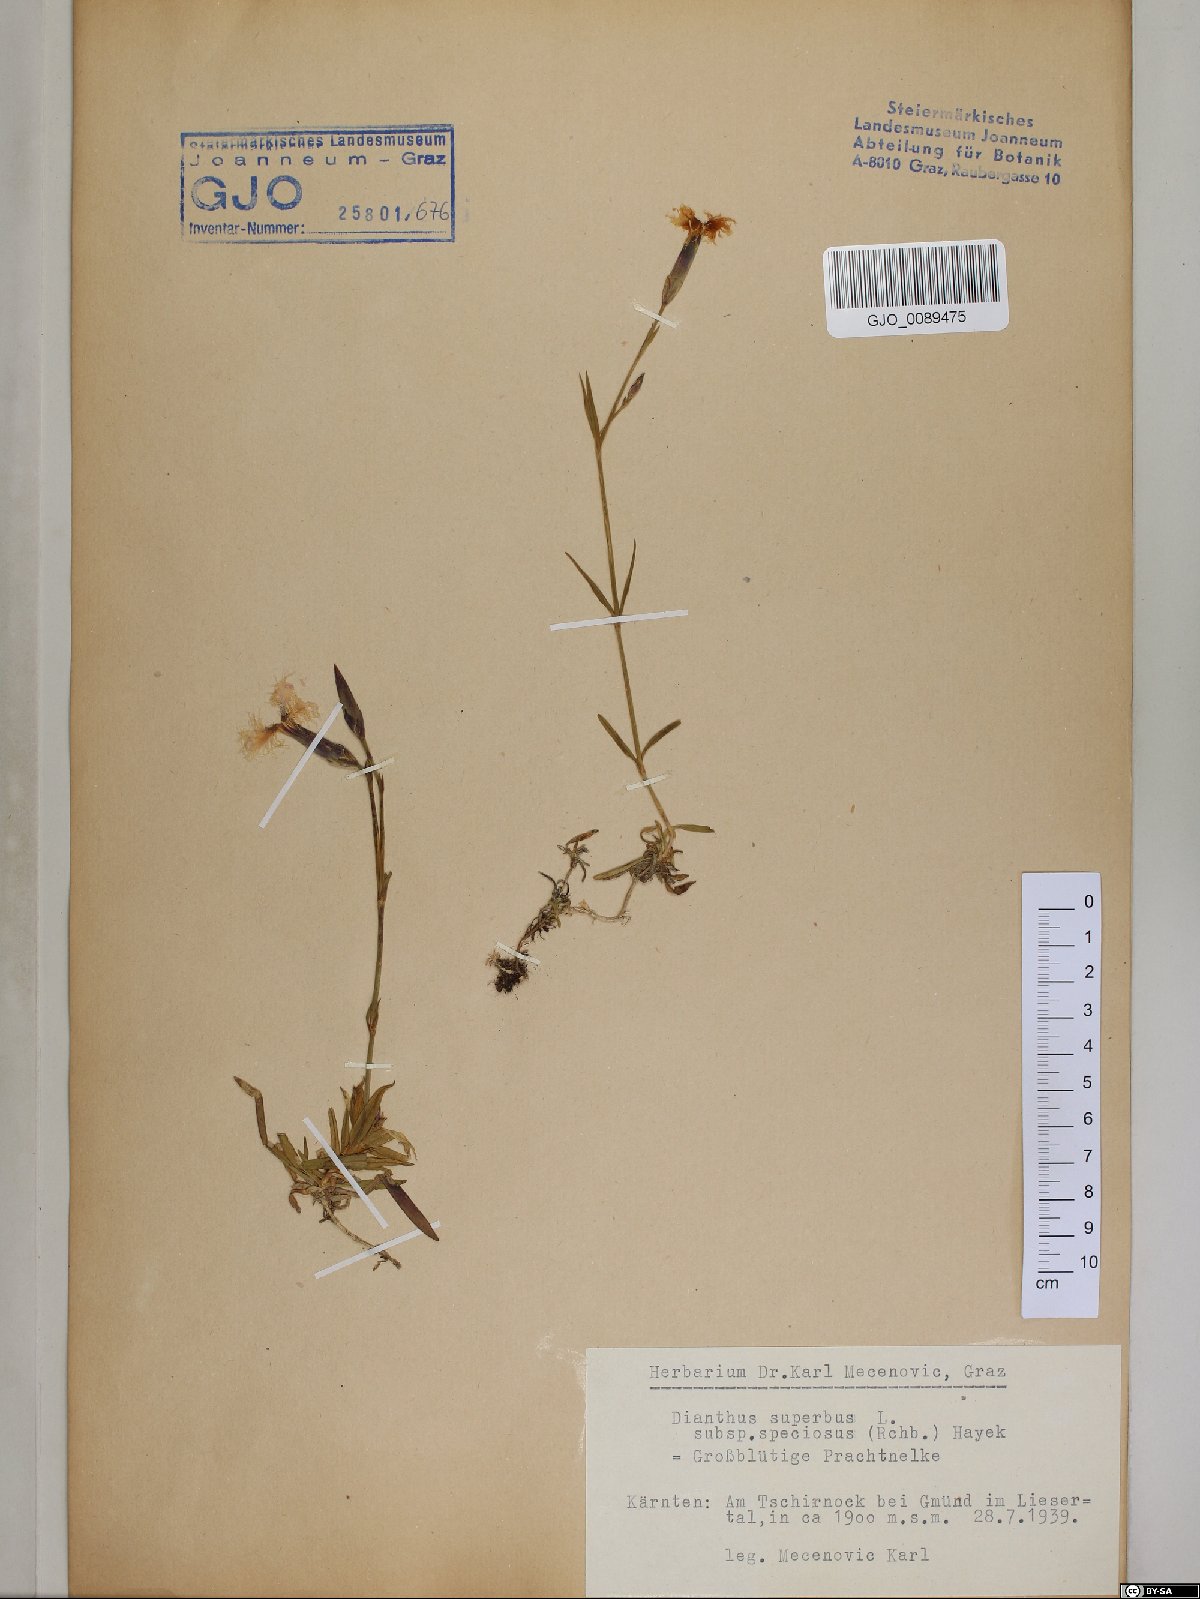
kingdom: Plantae
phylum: Tracheophyta
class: Magnoliopsida
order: Caryophyllales
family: Caryophyllaceae
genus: Dianthus
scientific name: Dianthus superbus
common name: Fringed pink
